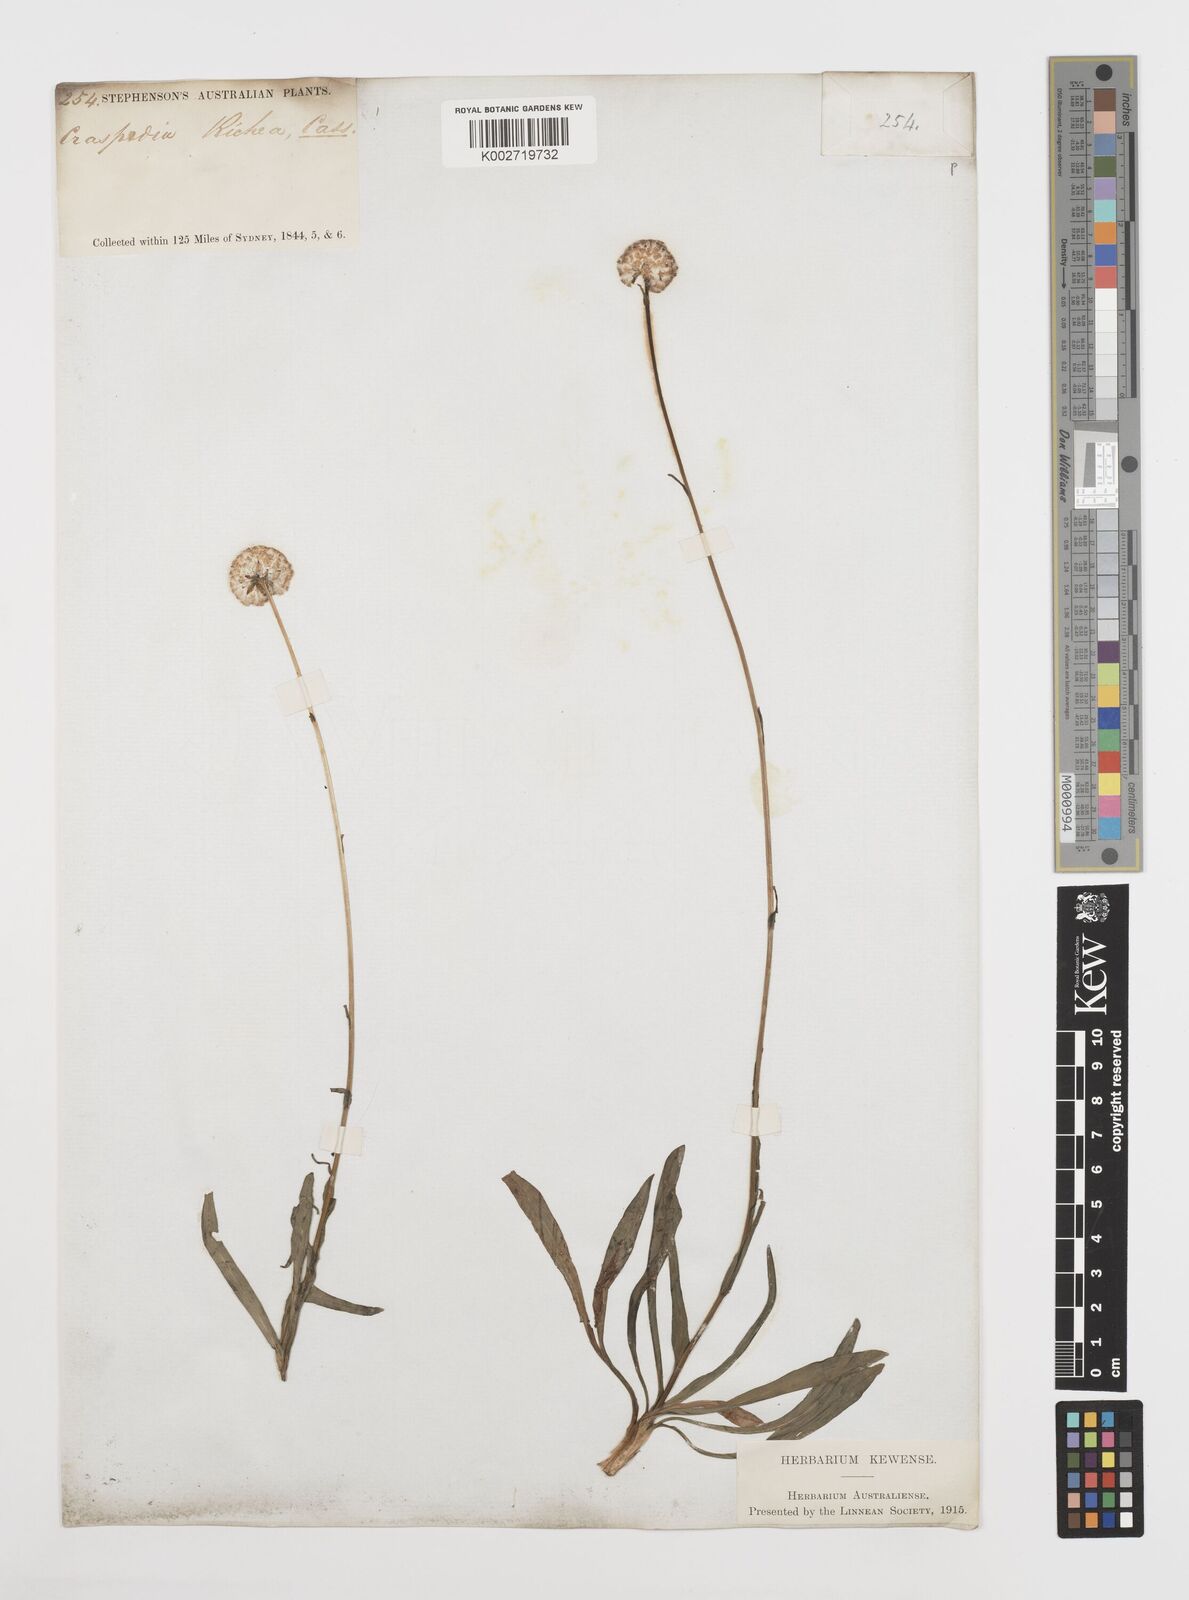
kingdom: Plantae
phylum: Tracheophyta
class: Magnoliopsida
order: Asterales
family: Asteraceae
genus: Craspedia
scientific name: Craspedia glauca
